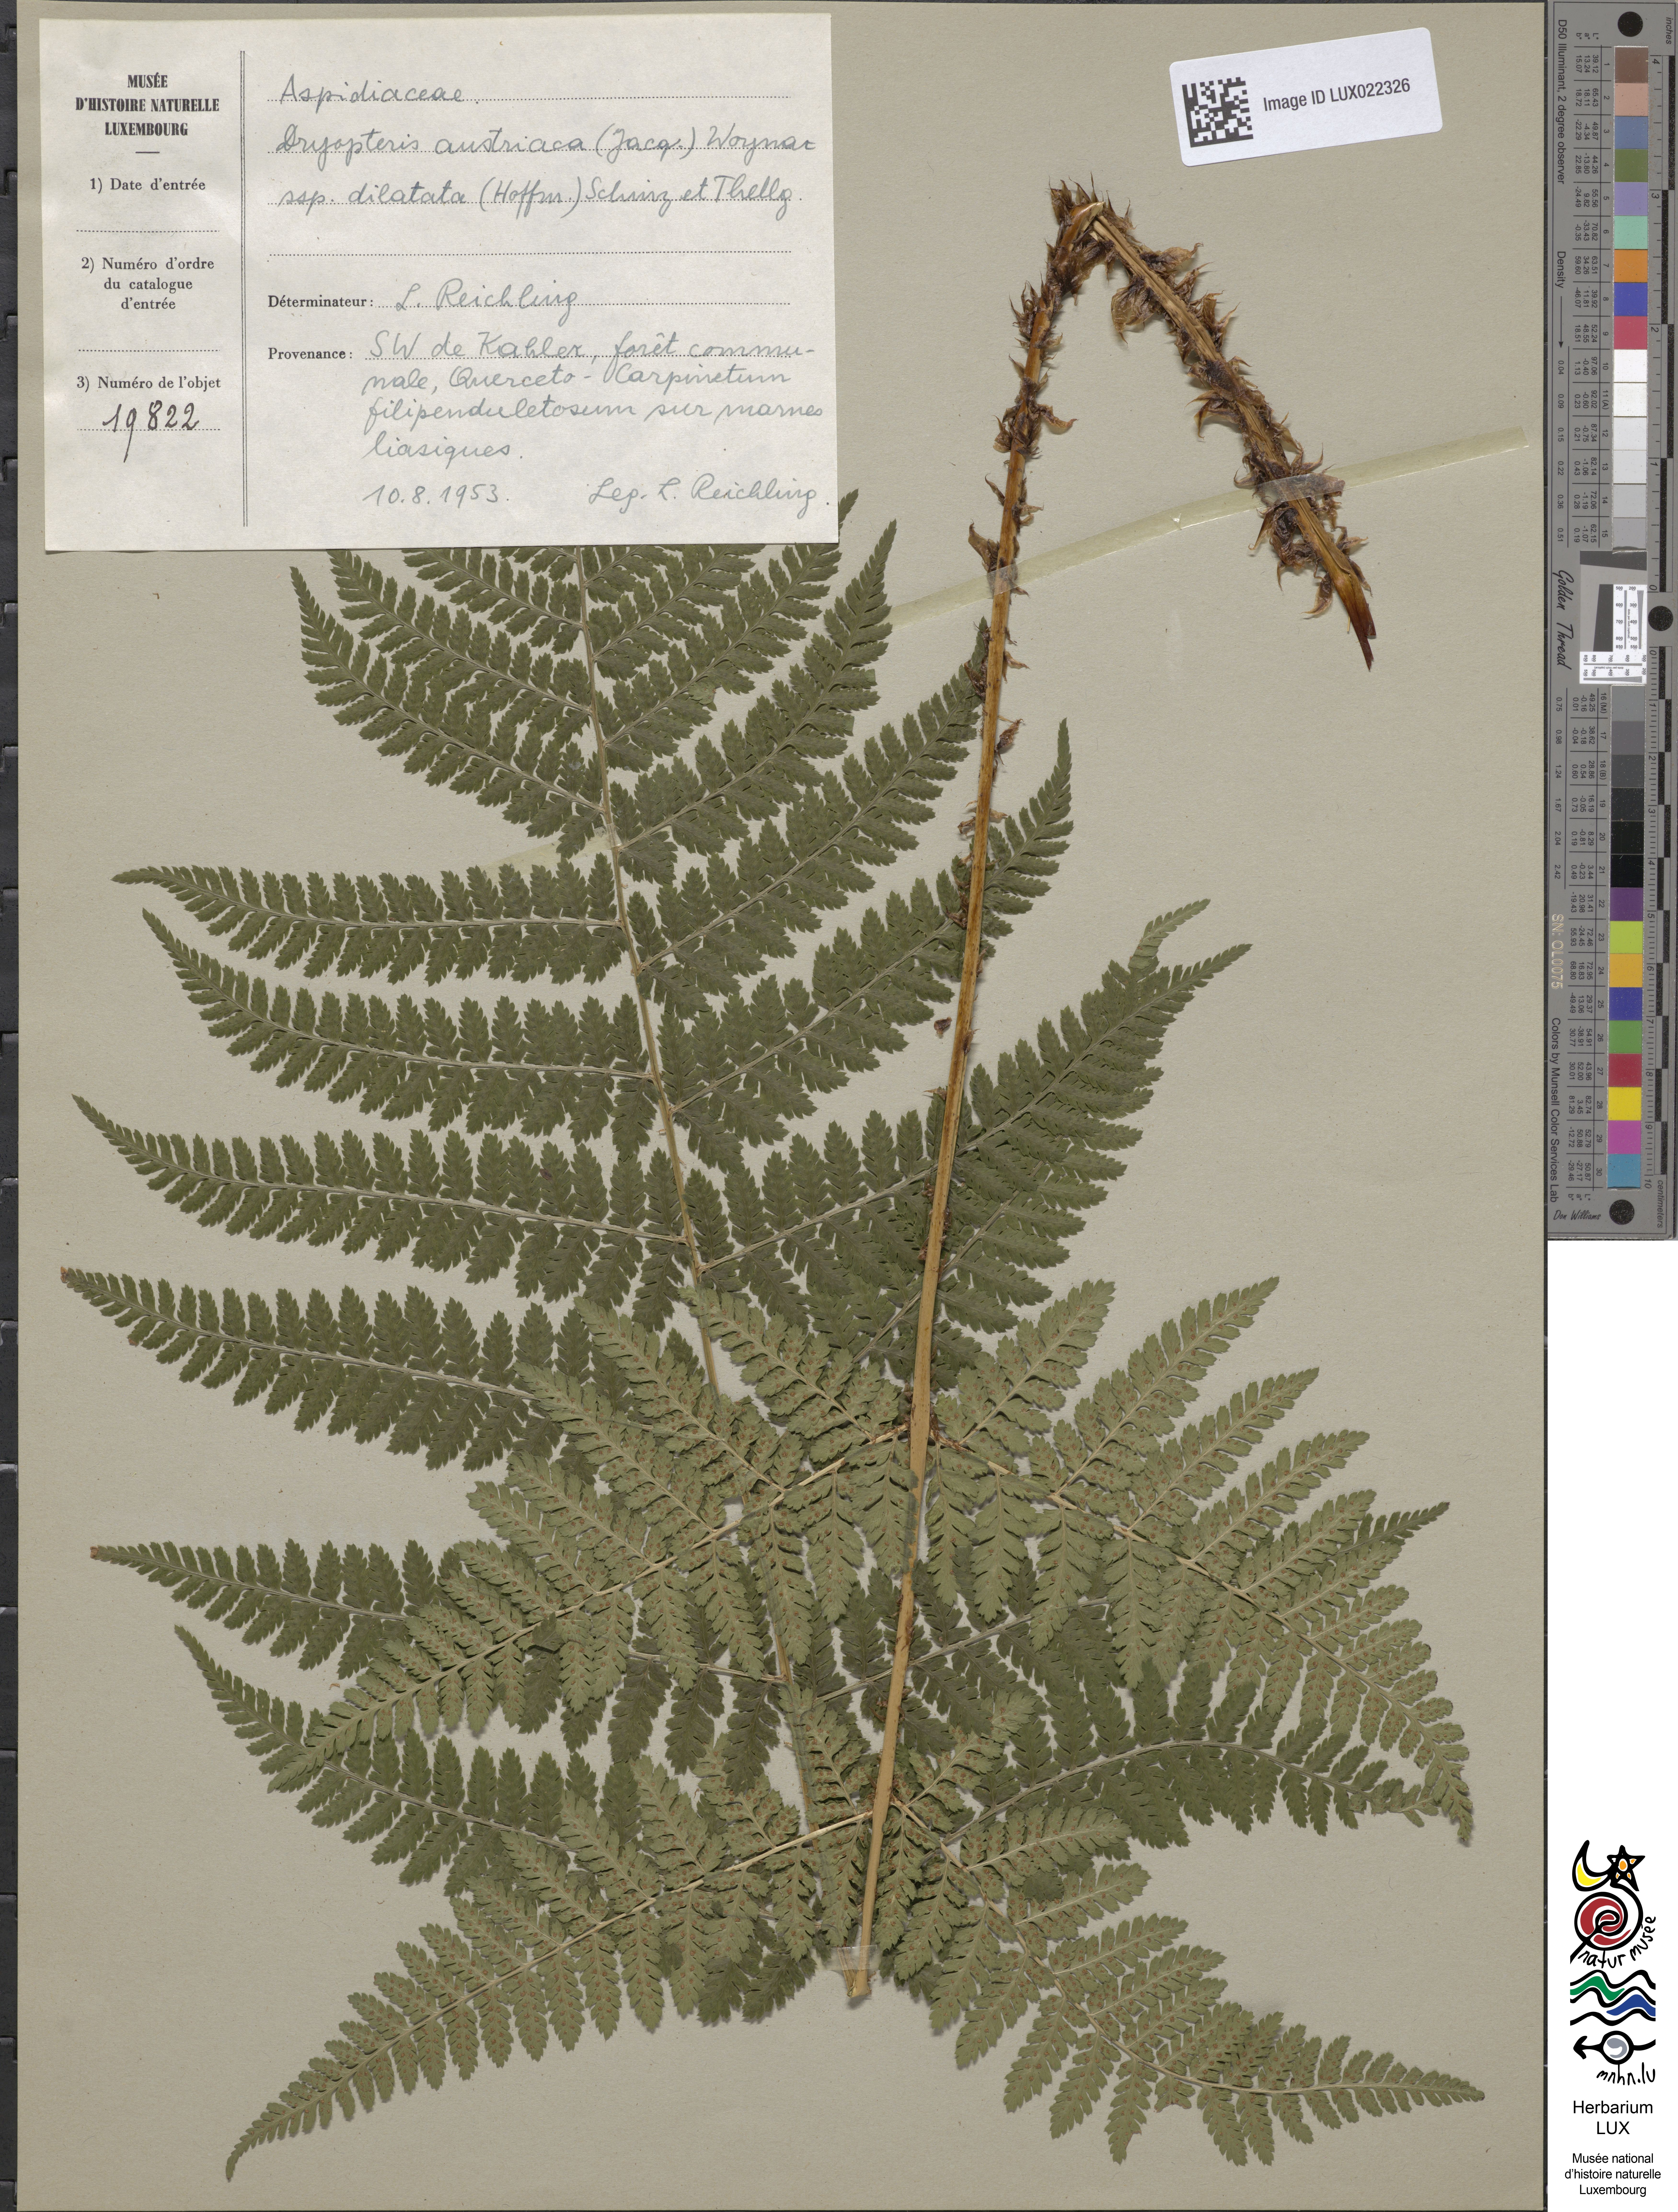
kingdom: Plantae
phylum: Tracheophyta
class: Polypodiopsida
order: Polypodiales
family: Dryopteridaceae
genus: Dryopteris
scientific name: Dryopteris dilatata
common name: Broad buckler-fern
